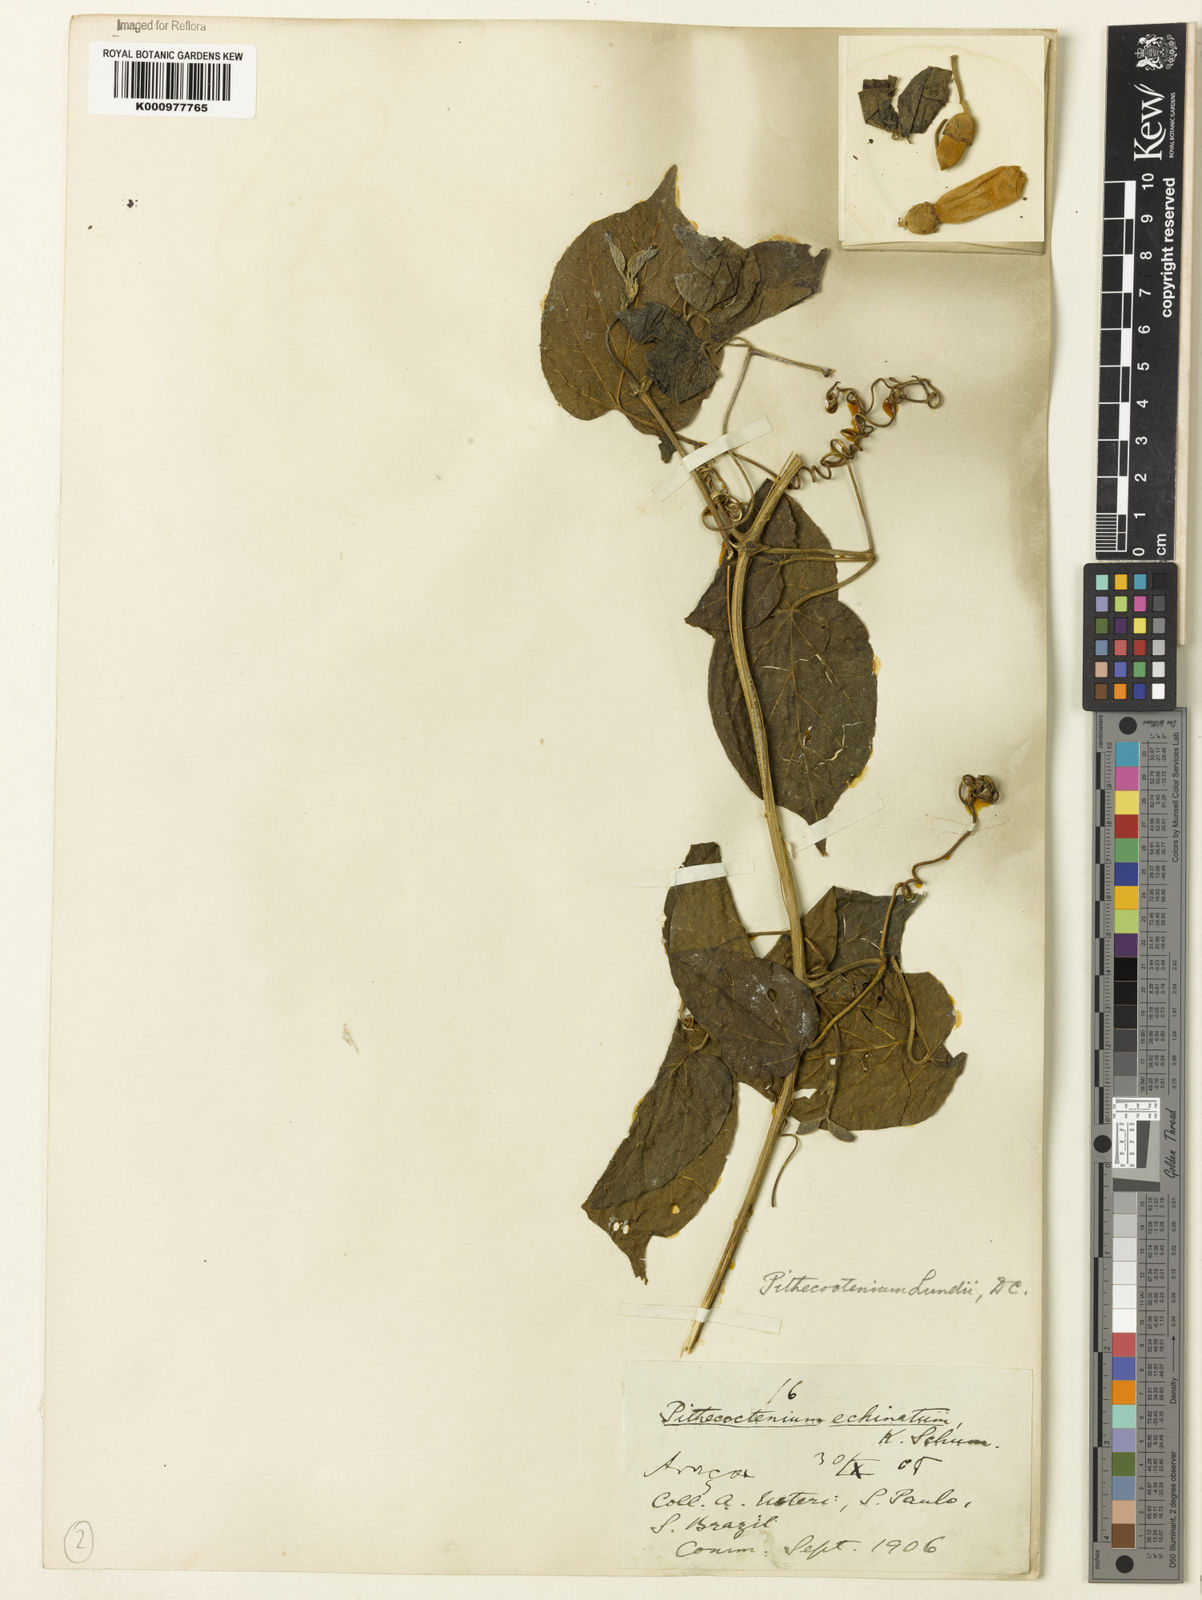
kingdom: Plantae
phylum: Tracheophyta
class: Magnoliopsida
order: Lamiales
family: Bignoniaceae
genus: Amphilophium
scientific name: Amphilophium crucigerum
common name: Monkey comb
